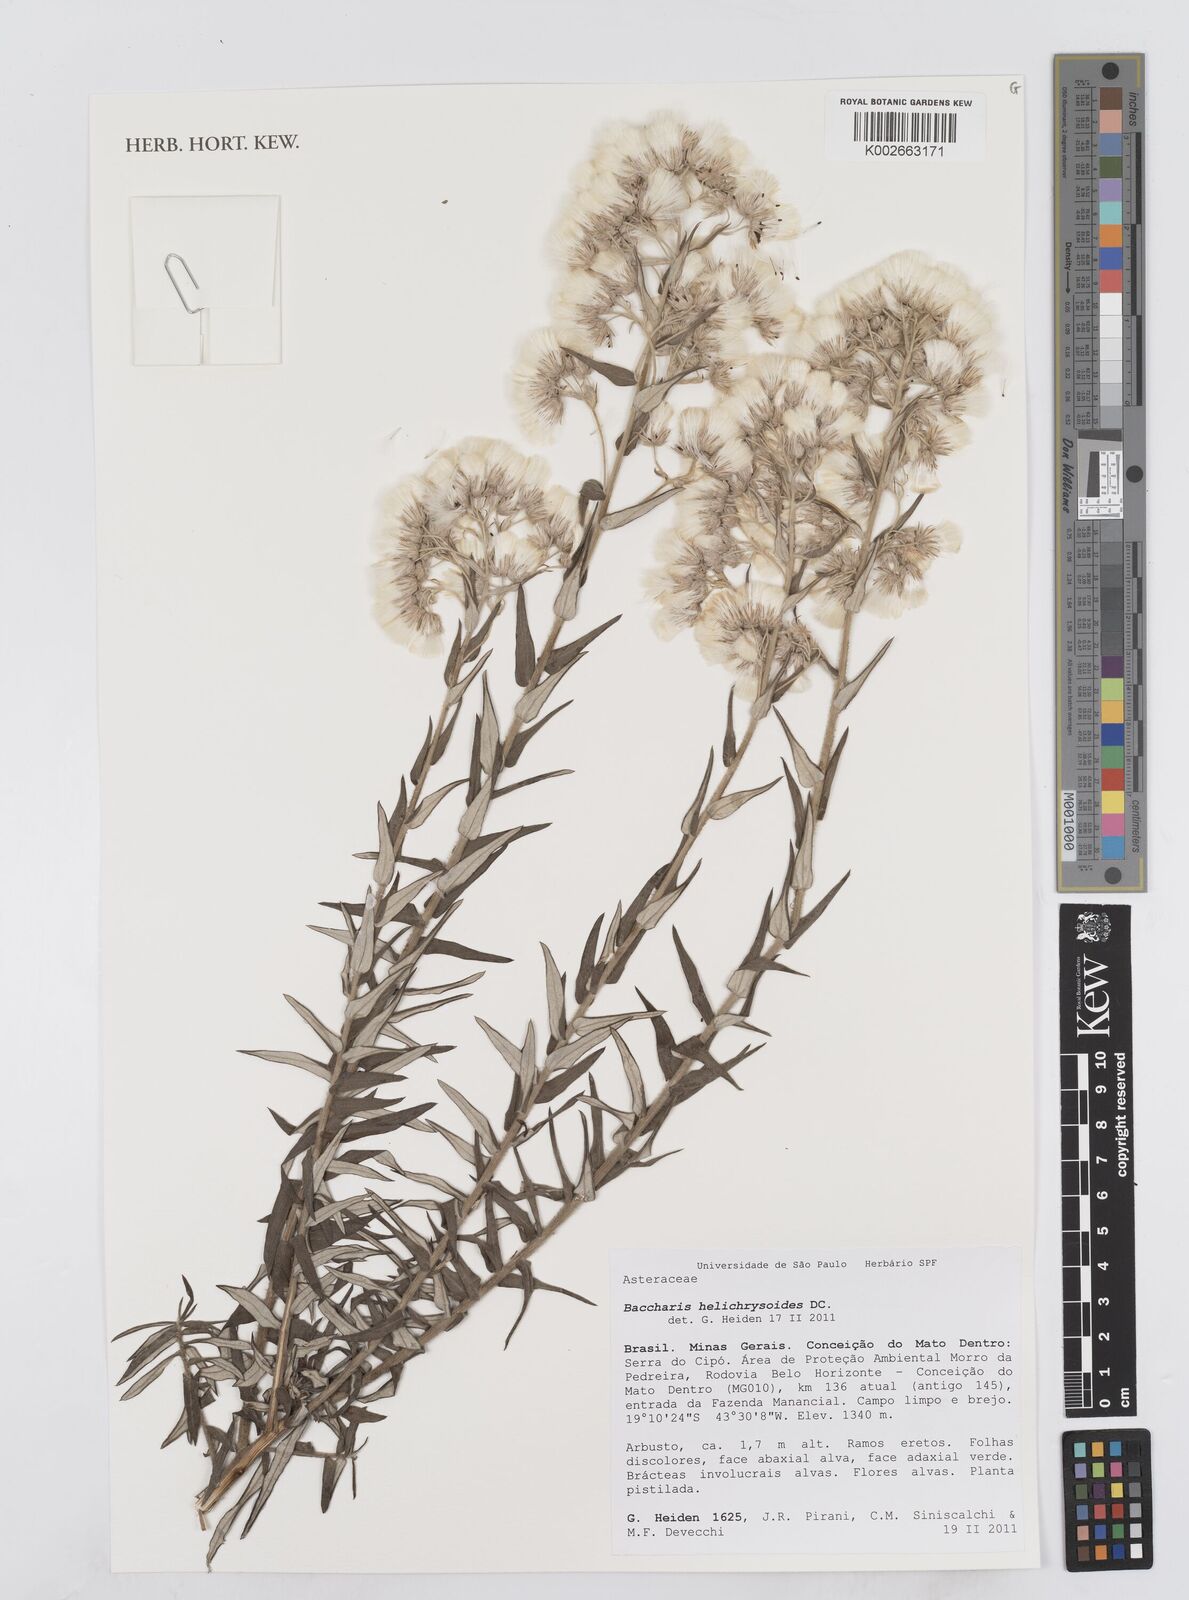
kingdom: Plantae
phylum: Tracheophyta
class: Magnoliopsida
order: Asterales
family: Asteraceae
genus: Baccharis
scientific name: Baccharis helichrysoides
